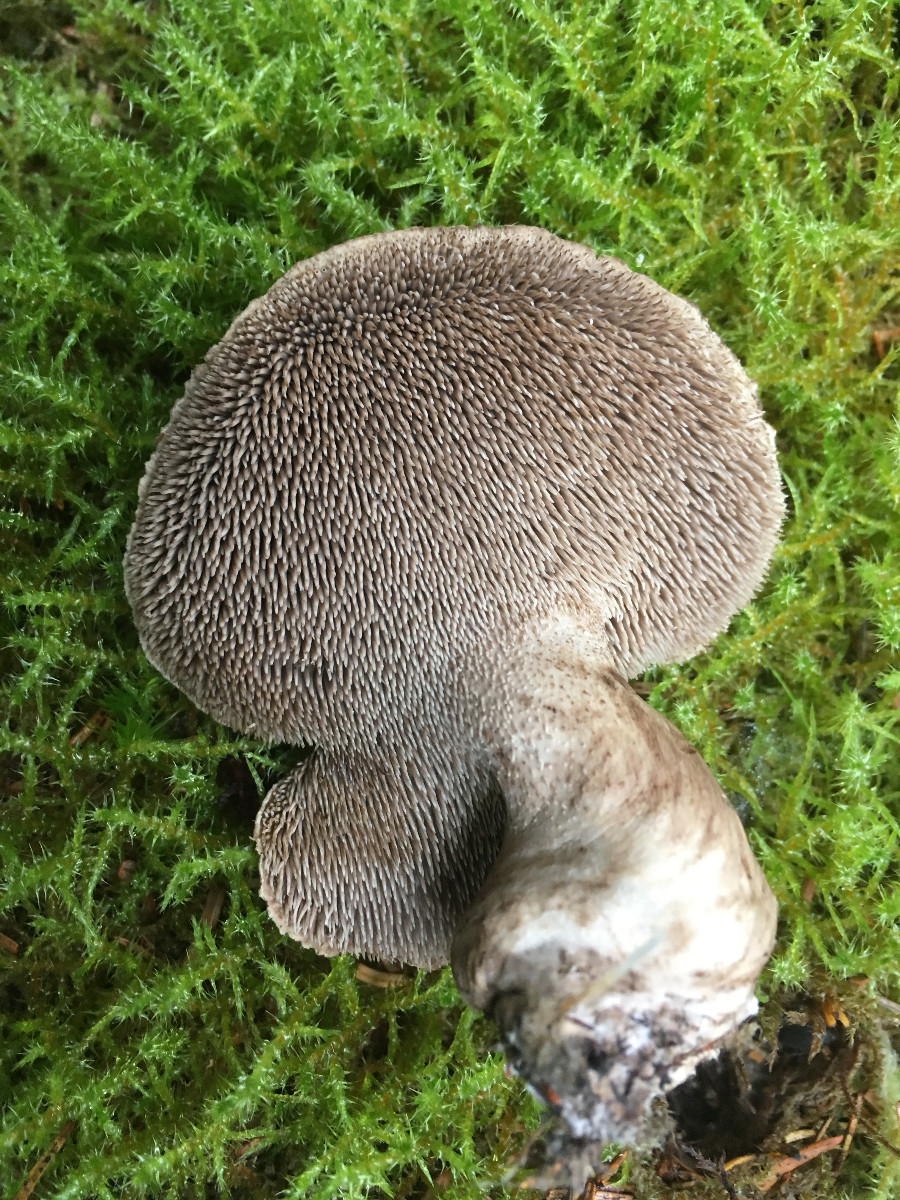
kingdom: Fungi
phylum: Basidiomycota
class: Agaricomycetes
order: Thelephorales
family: Bankeraceae
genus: Sarcodon
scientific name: Sarcodon imbricatus
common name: skællet kødpigsvamp
